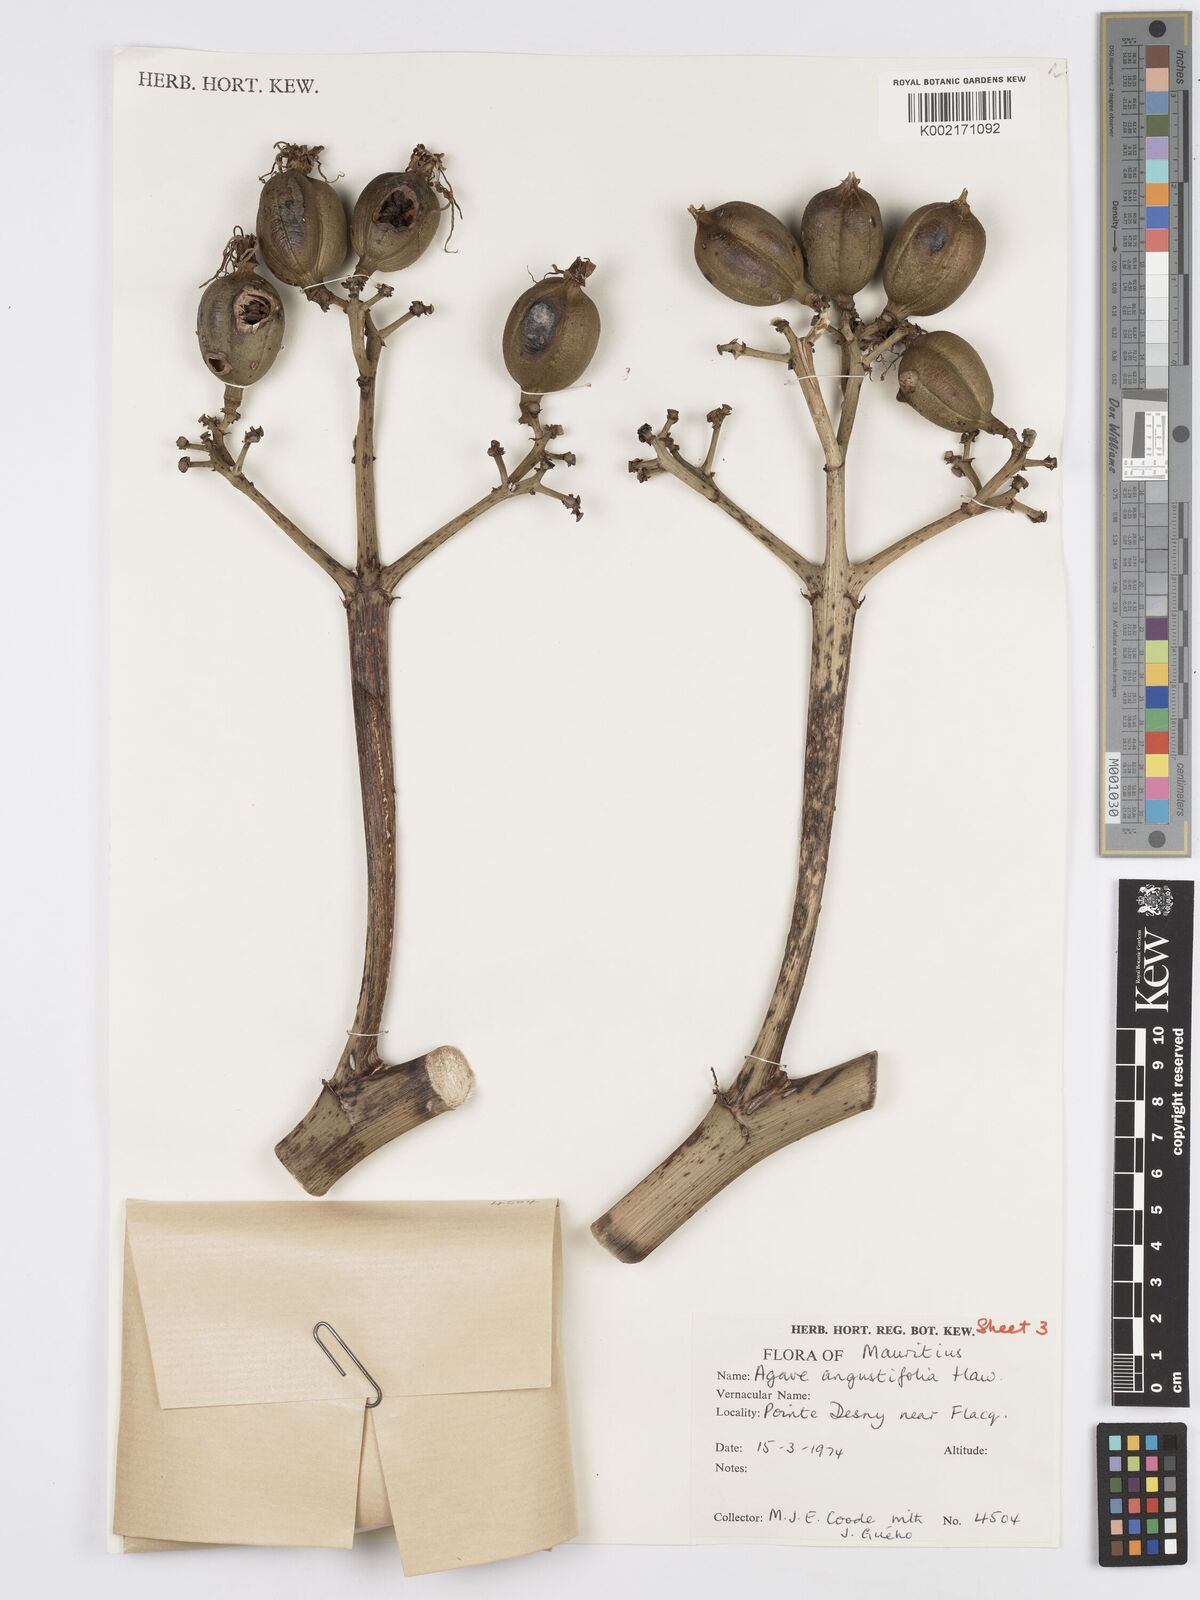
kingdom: Plantae
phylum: Tracheophyta
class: Liliopsida
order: Asparagales
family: Asparagaceae
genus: Agave
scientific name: Agave angustifolia
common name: Mescal agave
